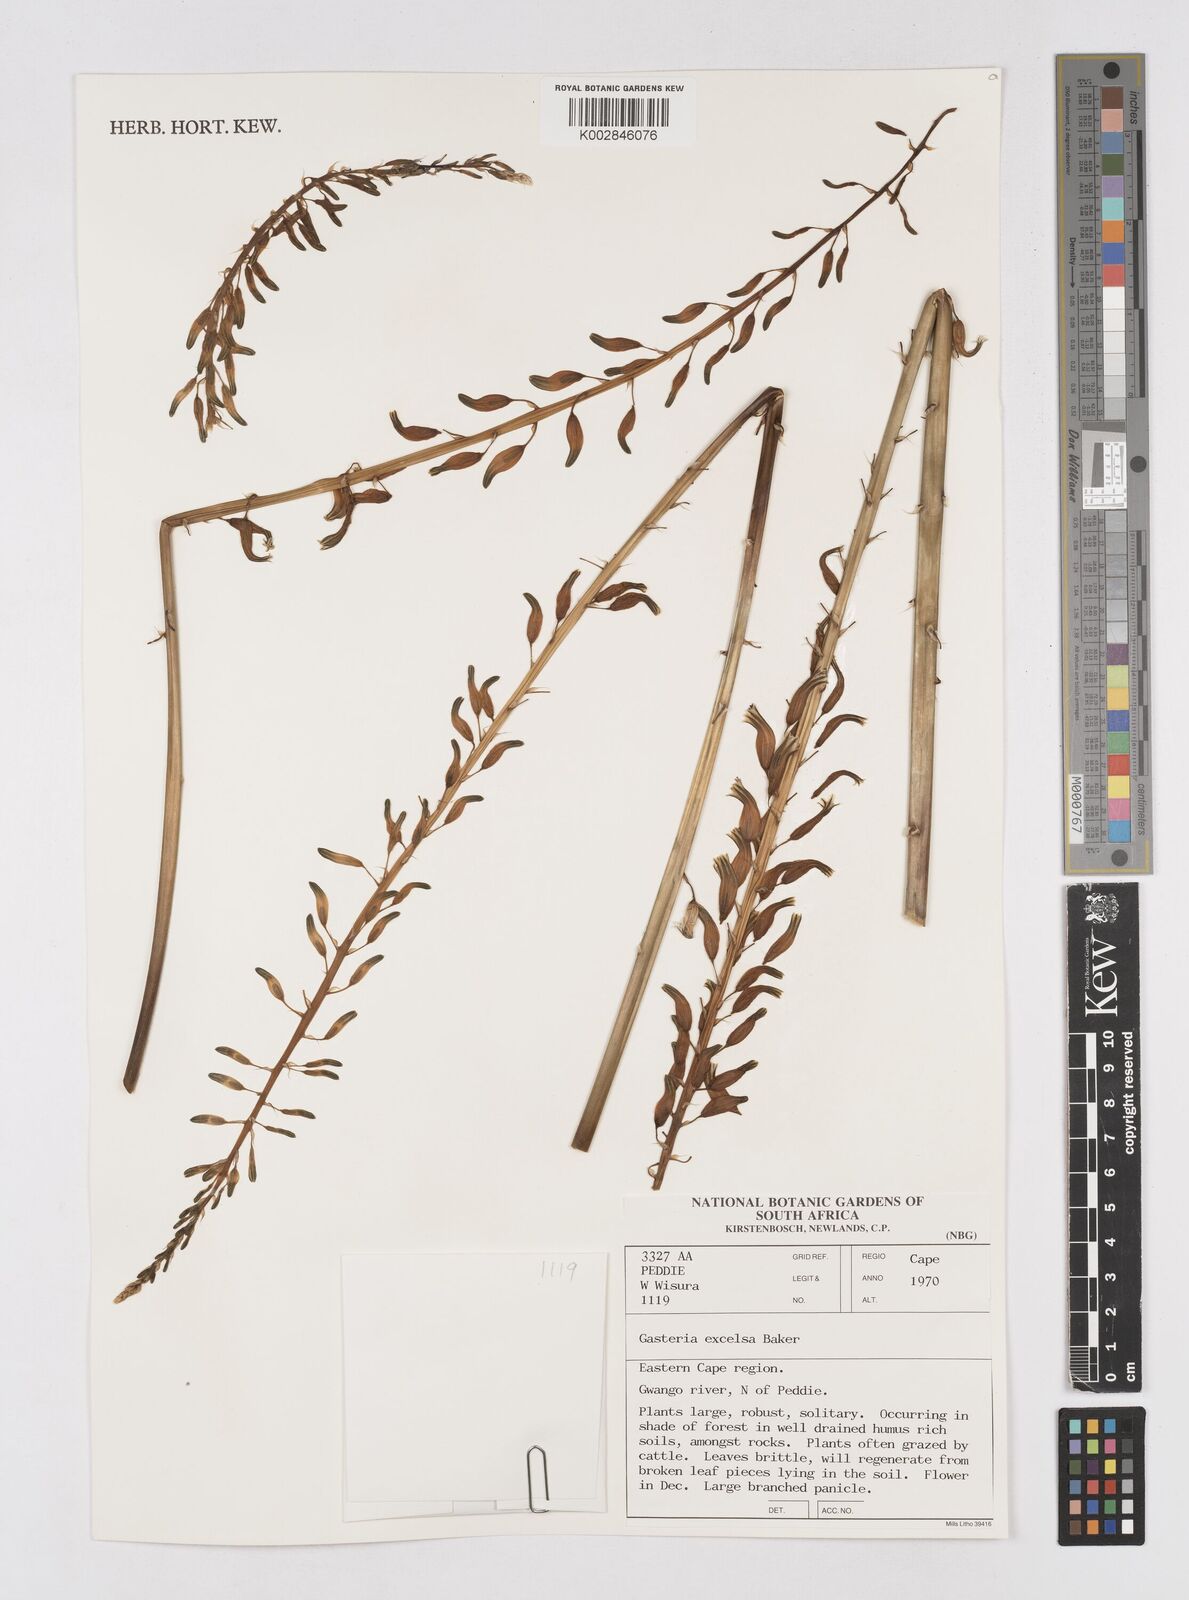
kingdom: Plantae
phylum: Tracheophyta
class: Liliopsida
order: Asparagales
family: Asphodelaceae
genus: Gasteria
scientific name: Gasteria excelsa
